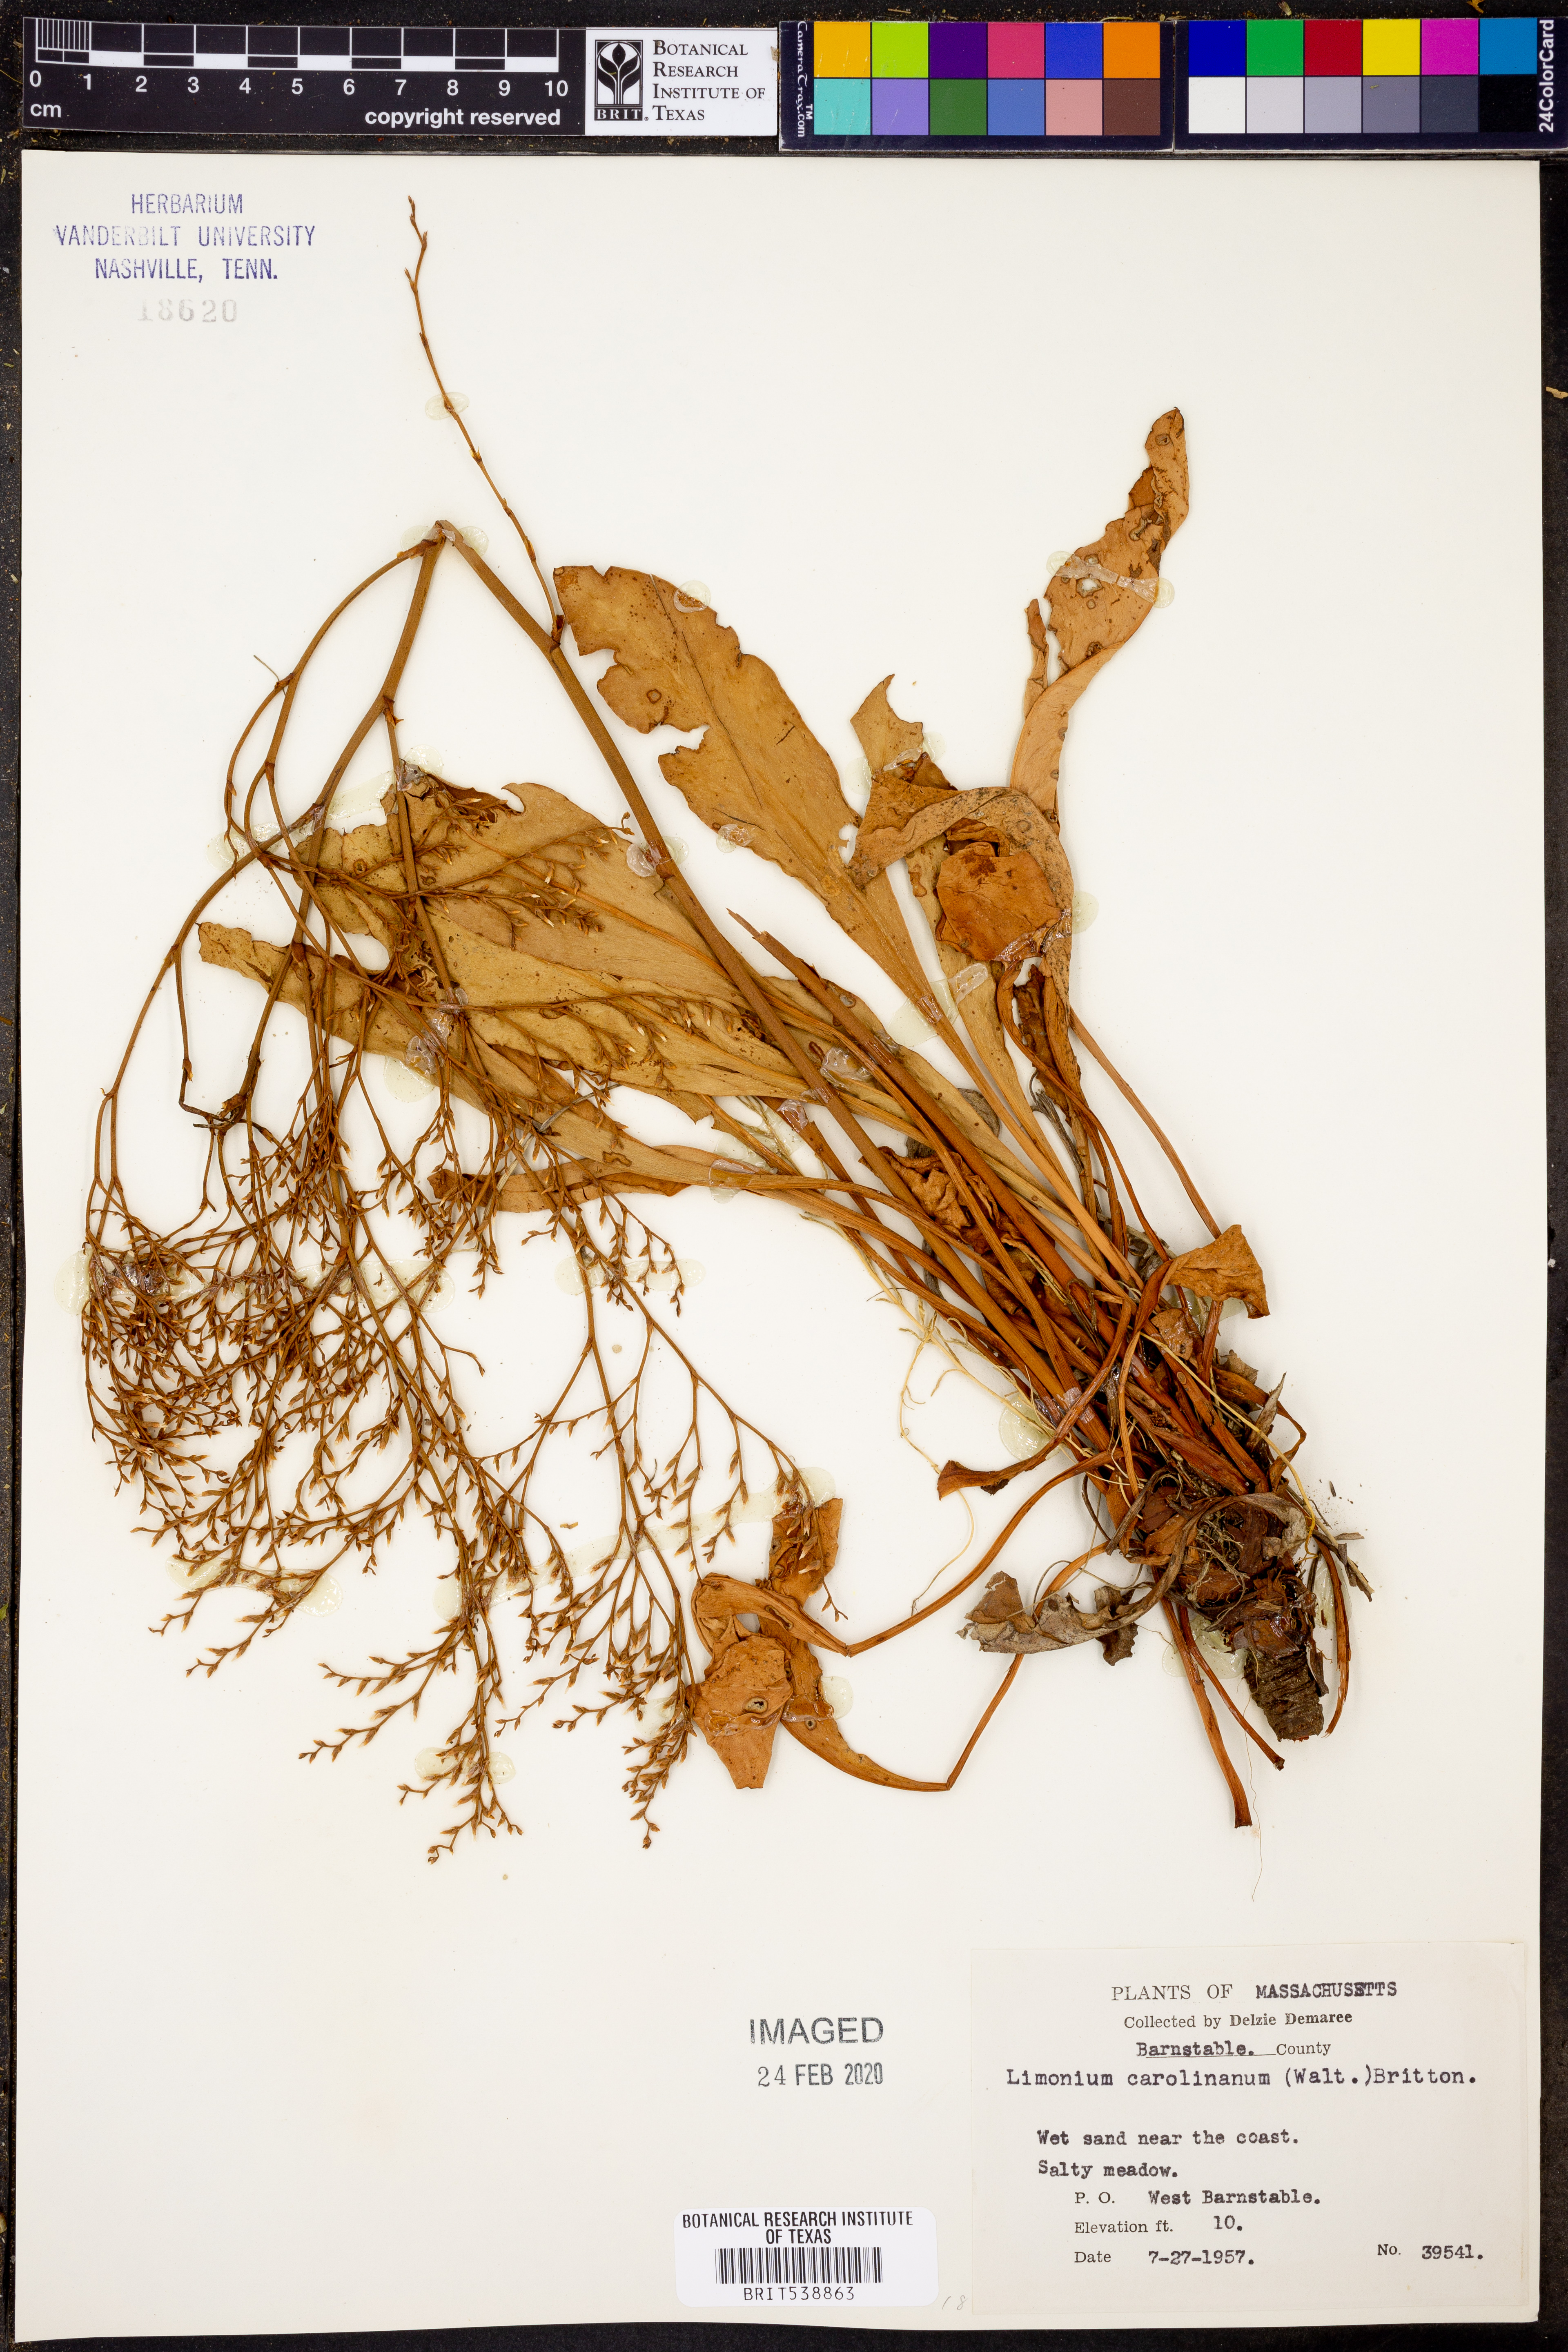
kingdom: Plantae
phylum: Tracheophyta
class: Magnoliopsida
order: Caryophyllales
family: Plumbaginaceae
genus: Limonium
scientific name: Limonium carolinianum
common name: Carolina sea lavender
